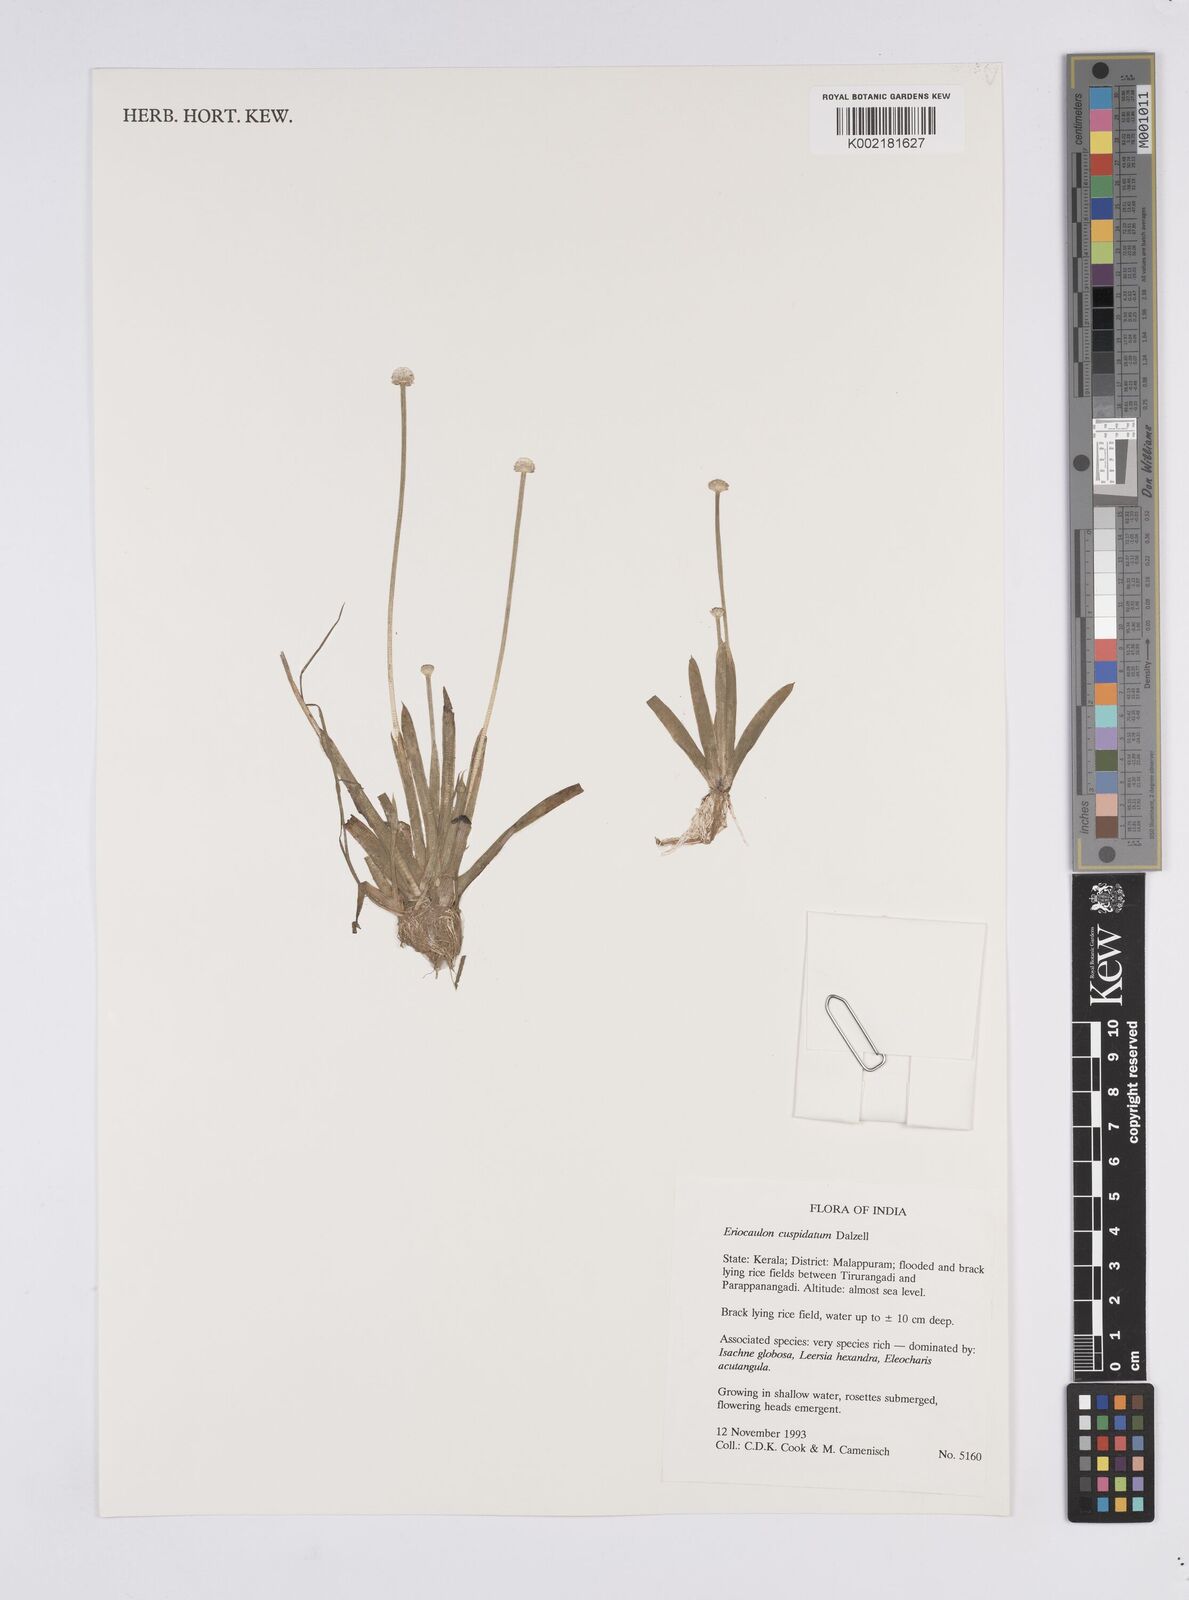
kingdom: Plantae
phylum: Tracheophyta
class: Liliopsida
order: Poales
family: Eriocaulaceae
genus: Eriocaulon
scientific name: Eriocaulon cuspidatum
